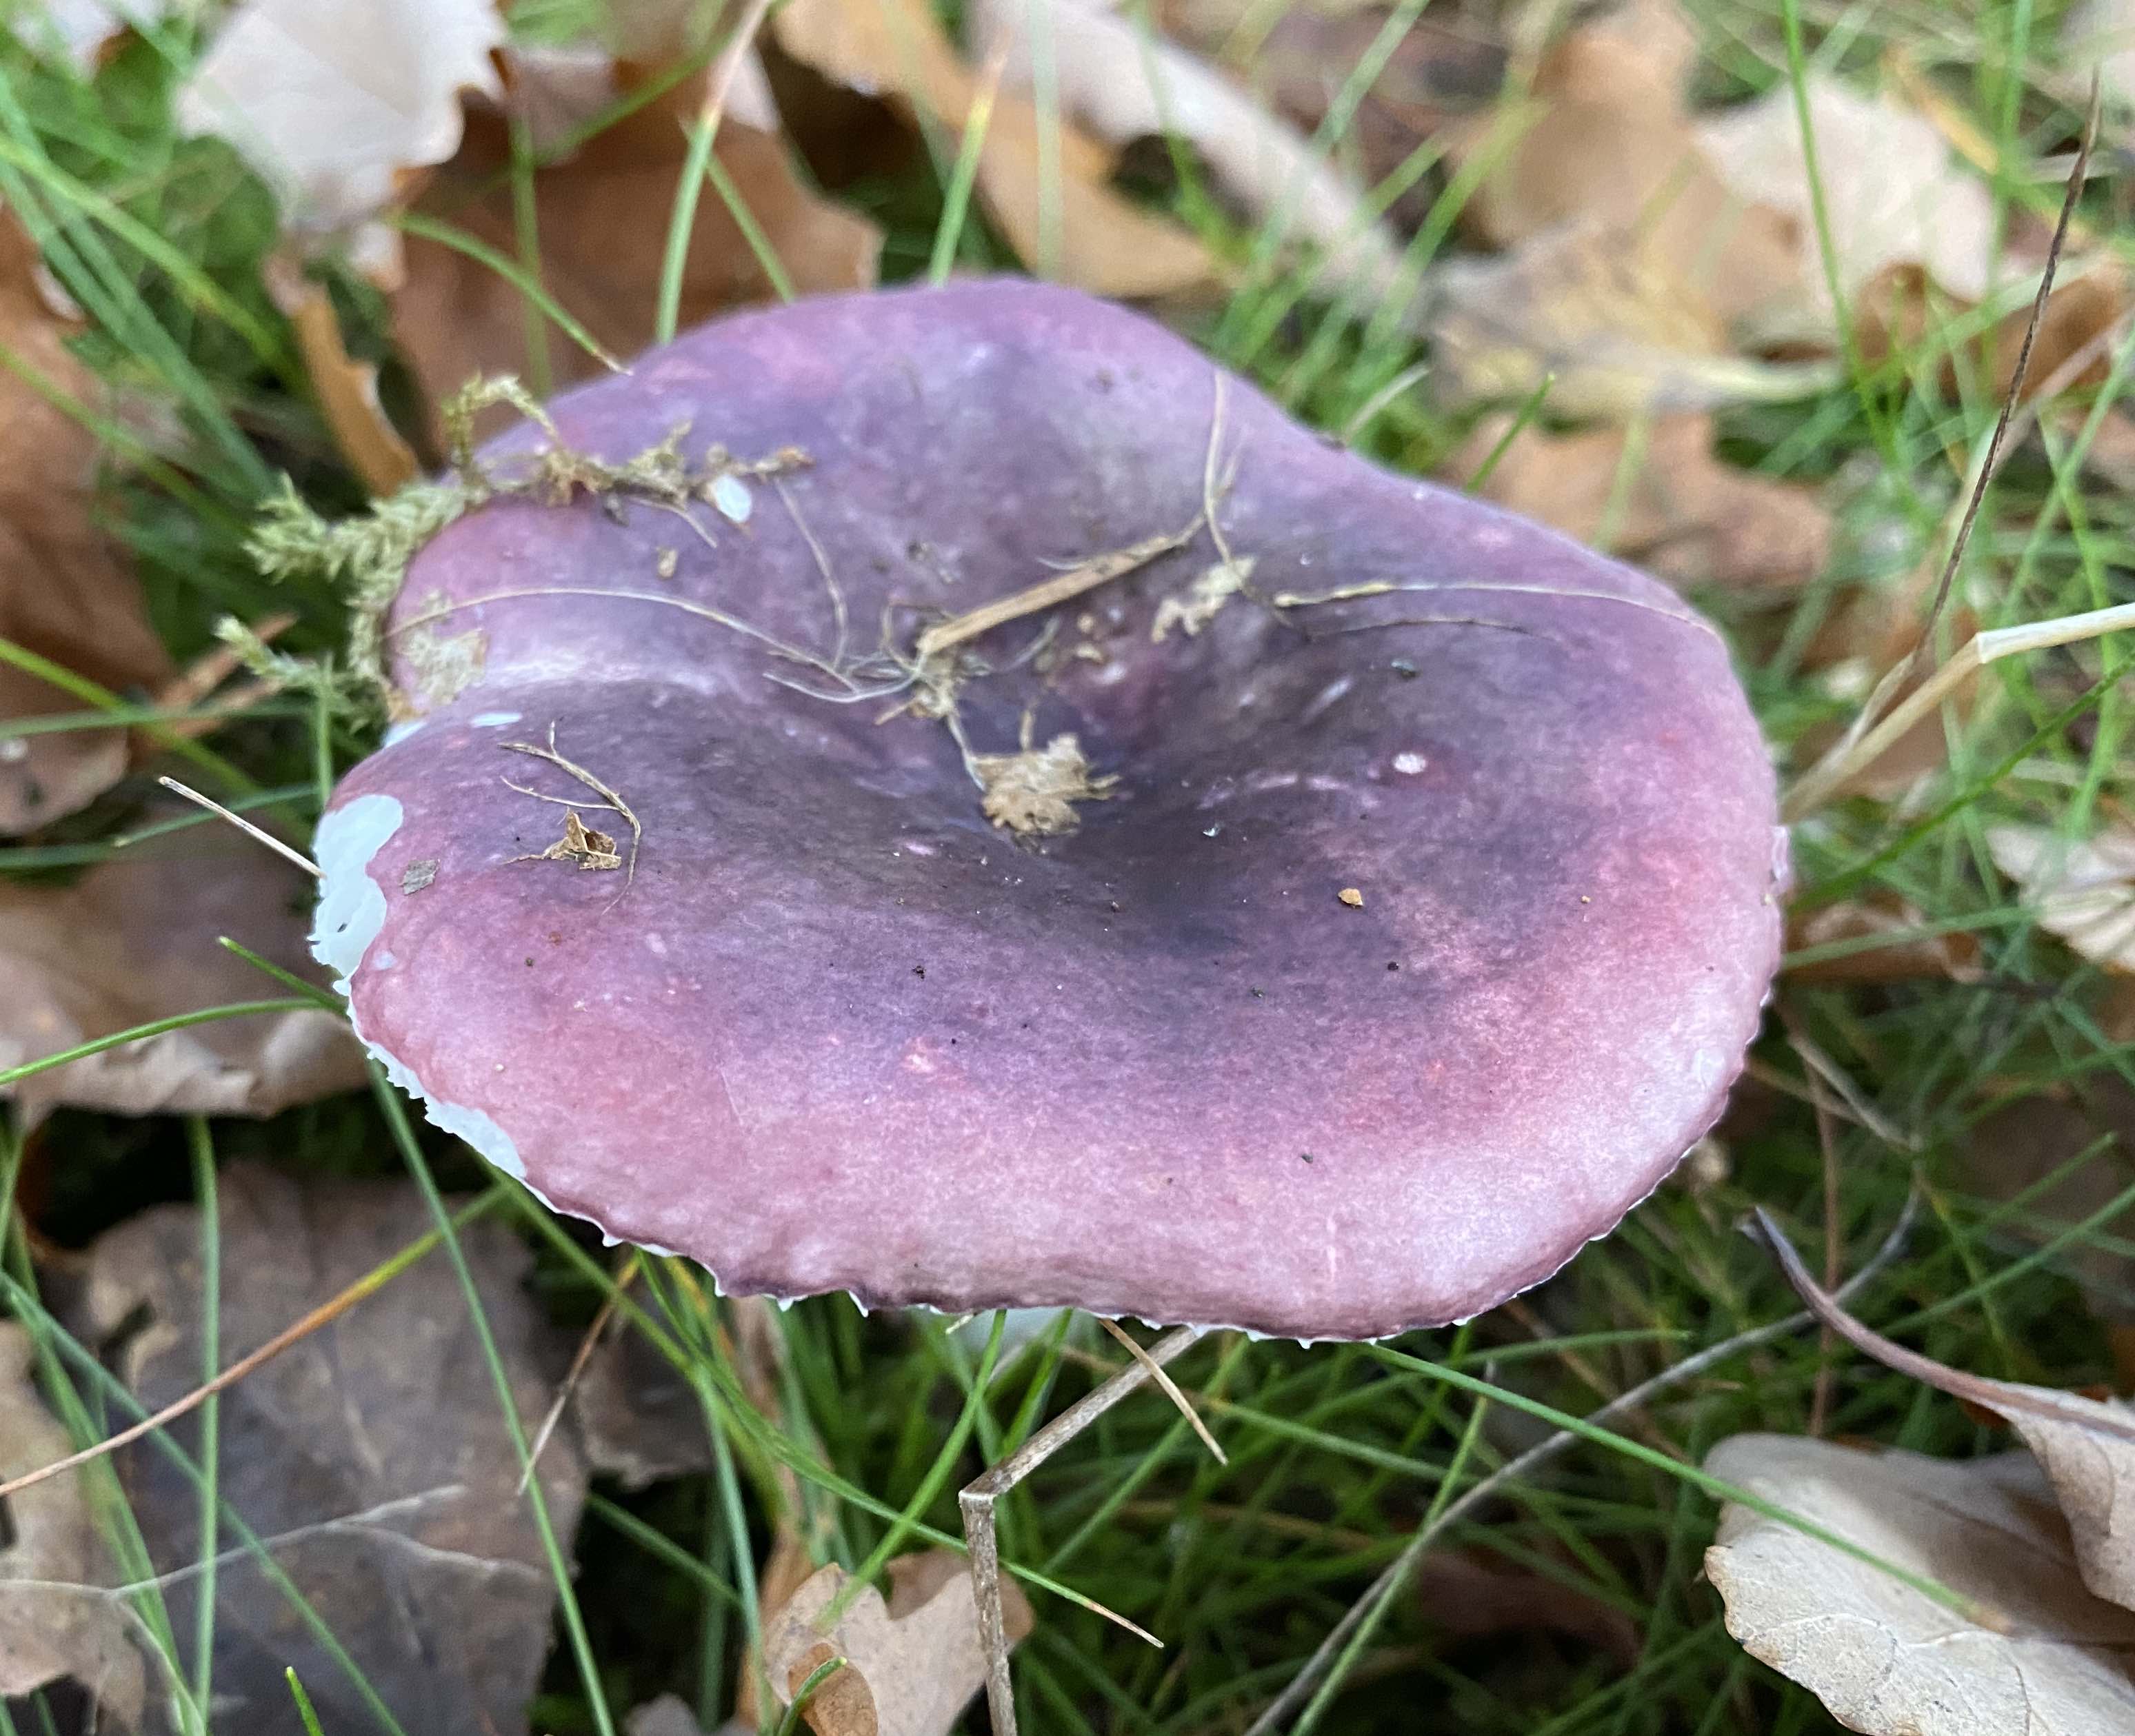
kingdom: Fungi
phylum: Basidiomycota
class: Agaricomycetes
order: Russulales
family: Russulaceae
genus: Russula
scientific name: Russula
